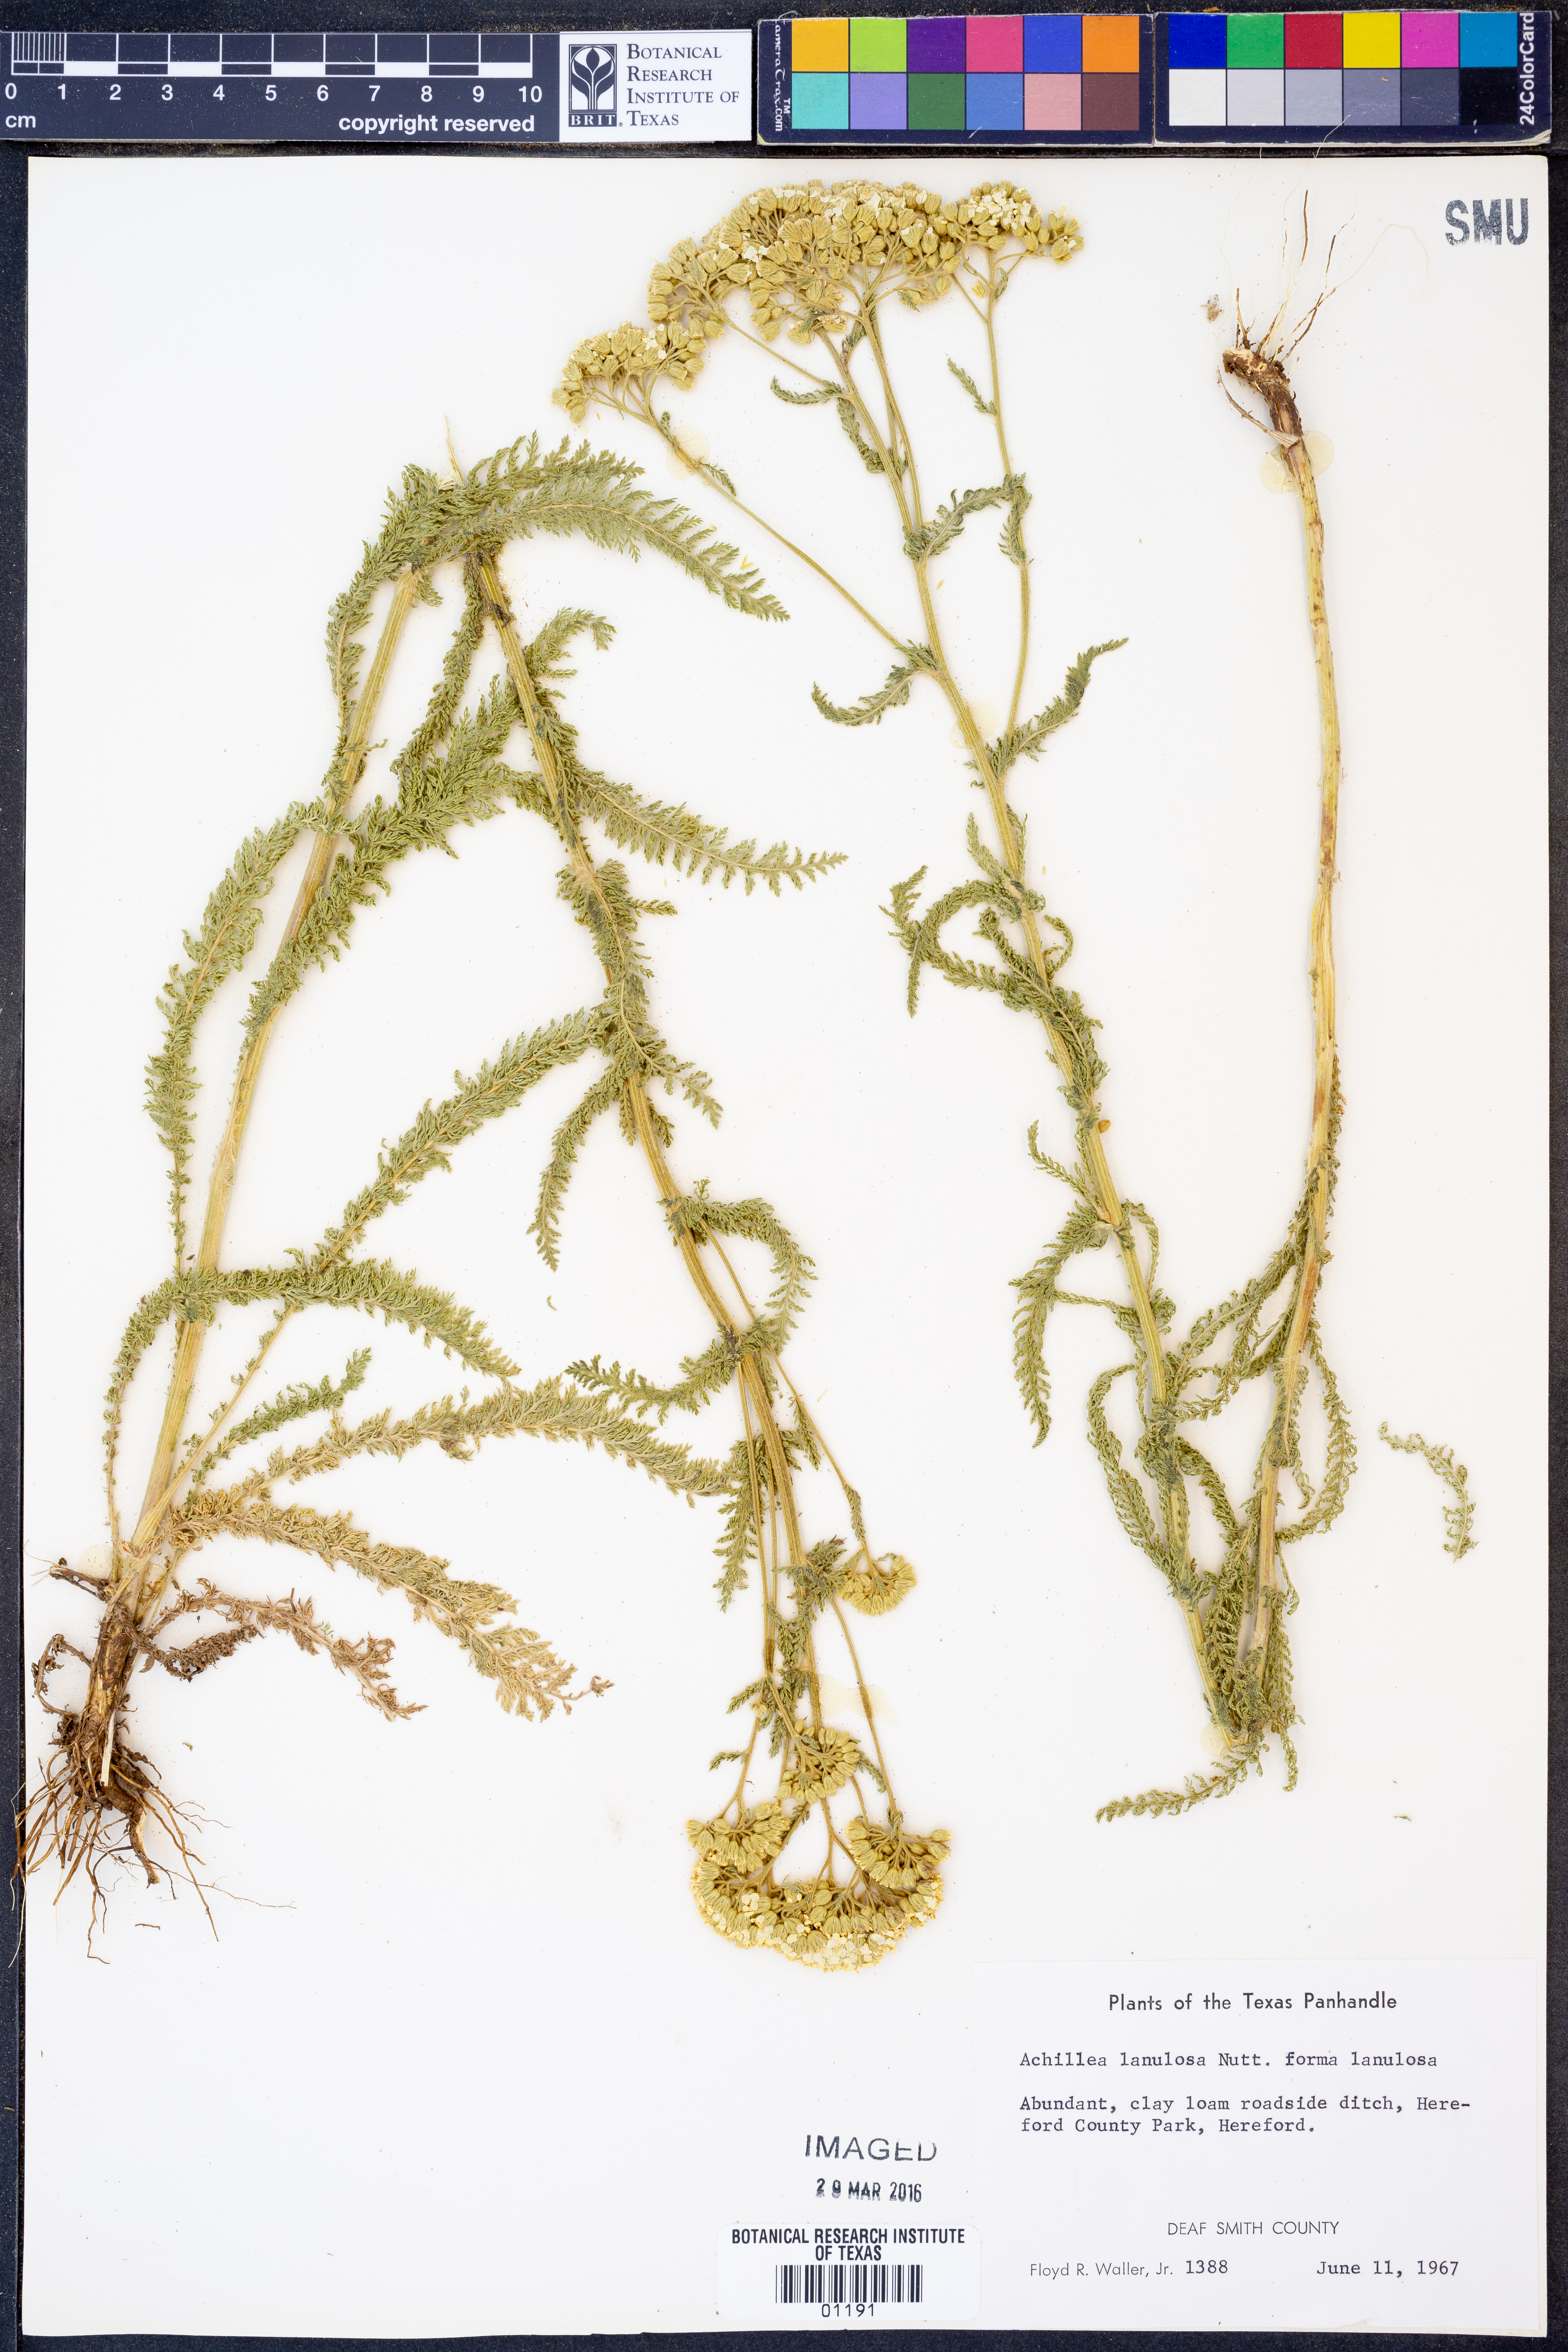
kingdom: Plantae
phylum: Tracheophyta
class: Magnoliopsida
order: Asterales
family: Asteraceae
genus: Achillea
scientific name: Achillea millefolium
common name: Yarrow
